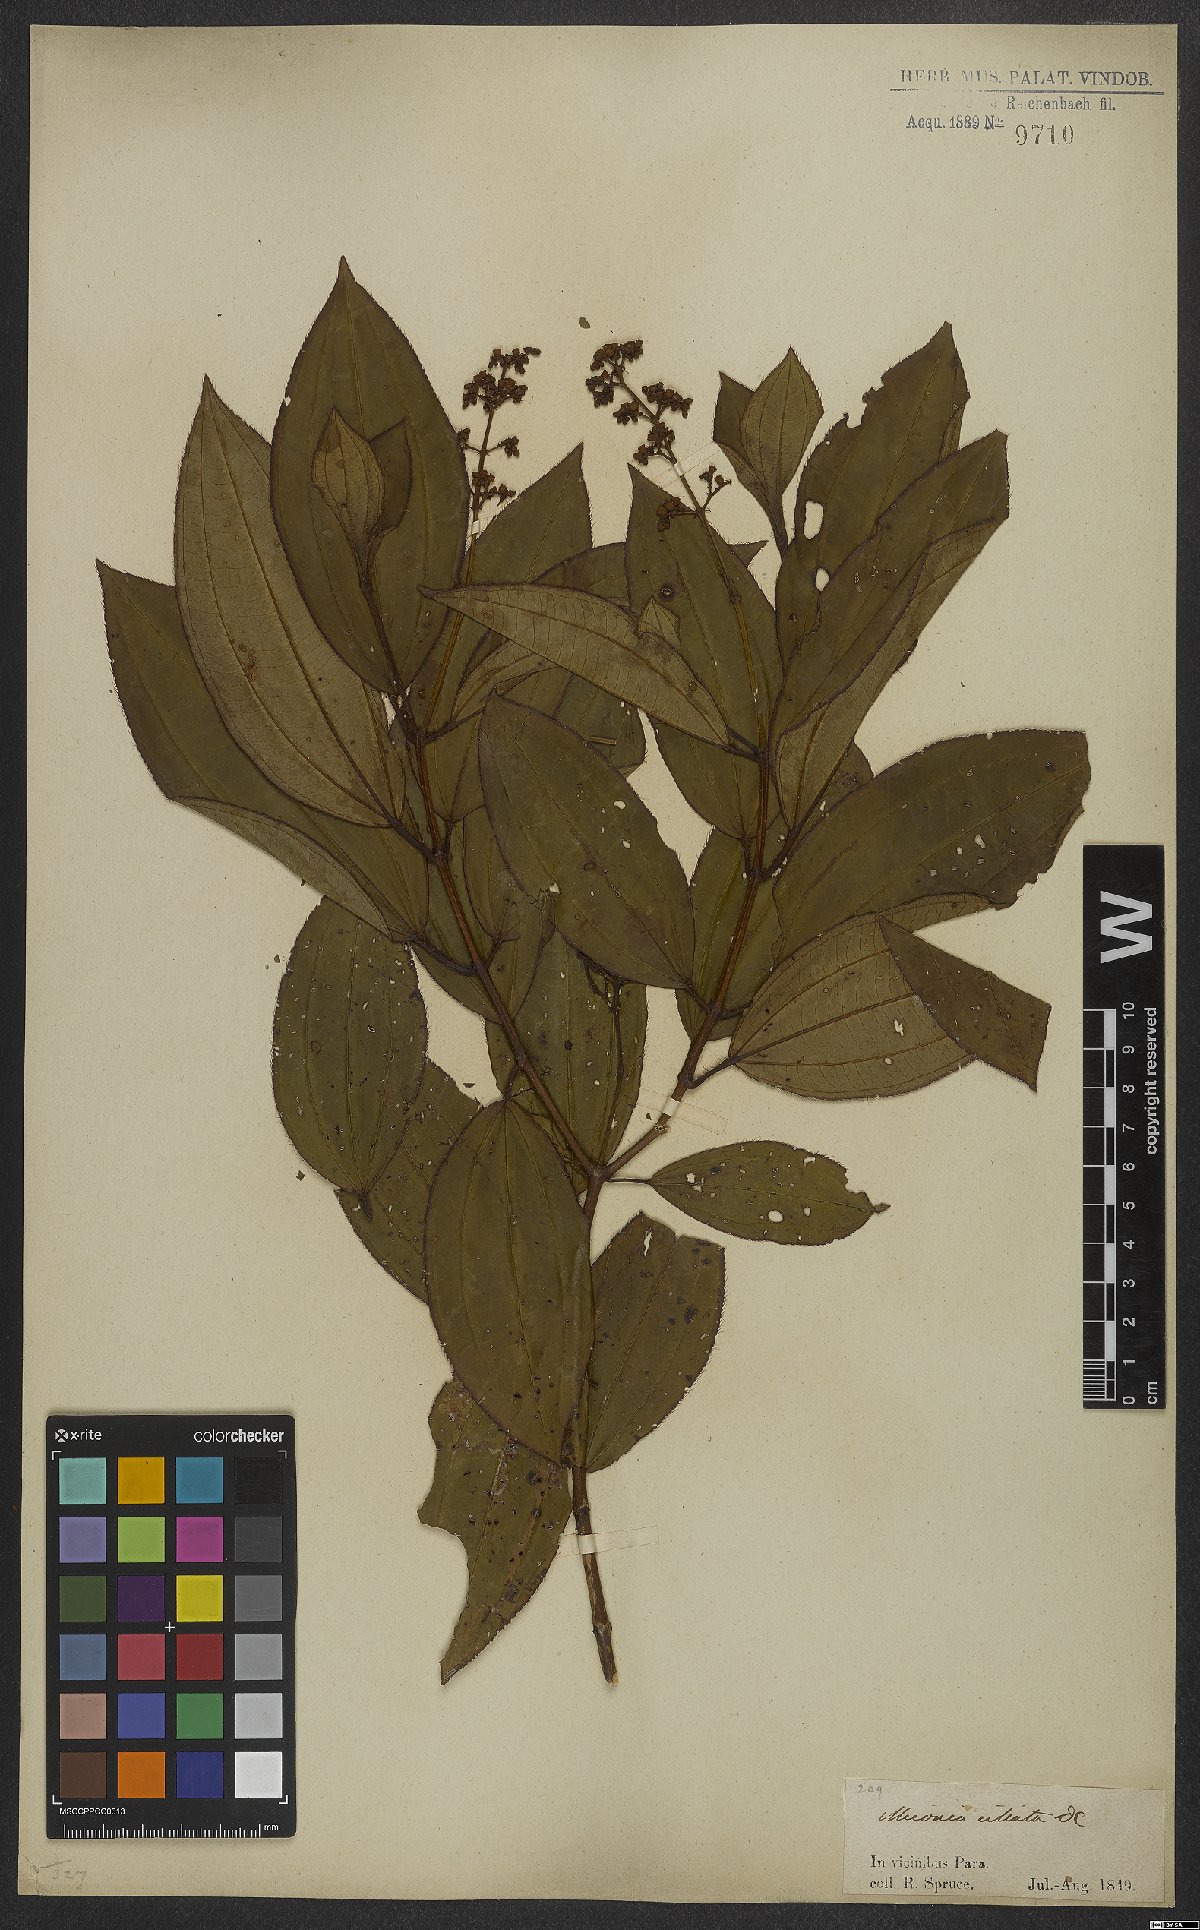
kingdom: Plantae
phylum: Tracheophyta
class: Magnoliopsida
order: Myrtales
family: Melastomataceae
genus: Miconia
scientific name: Miconia ciliata
